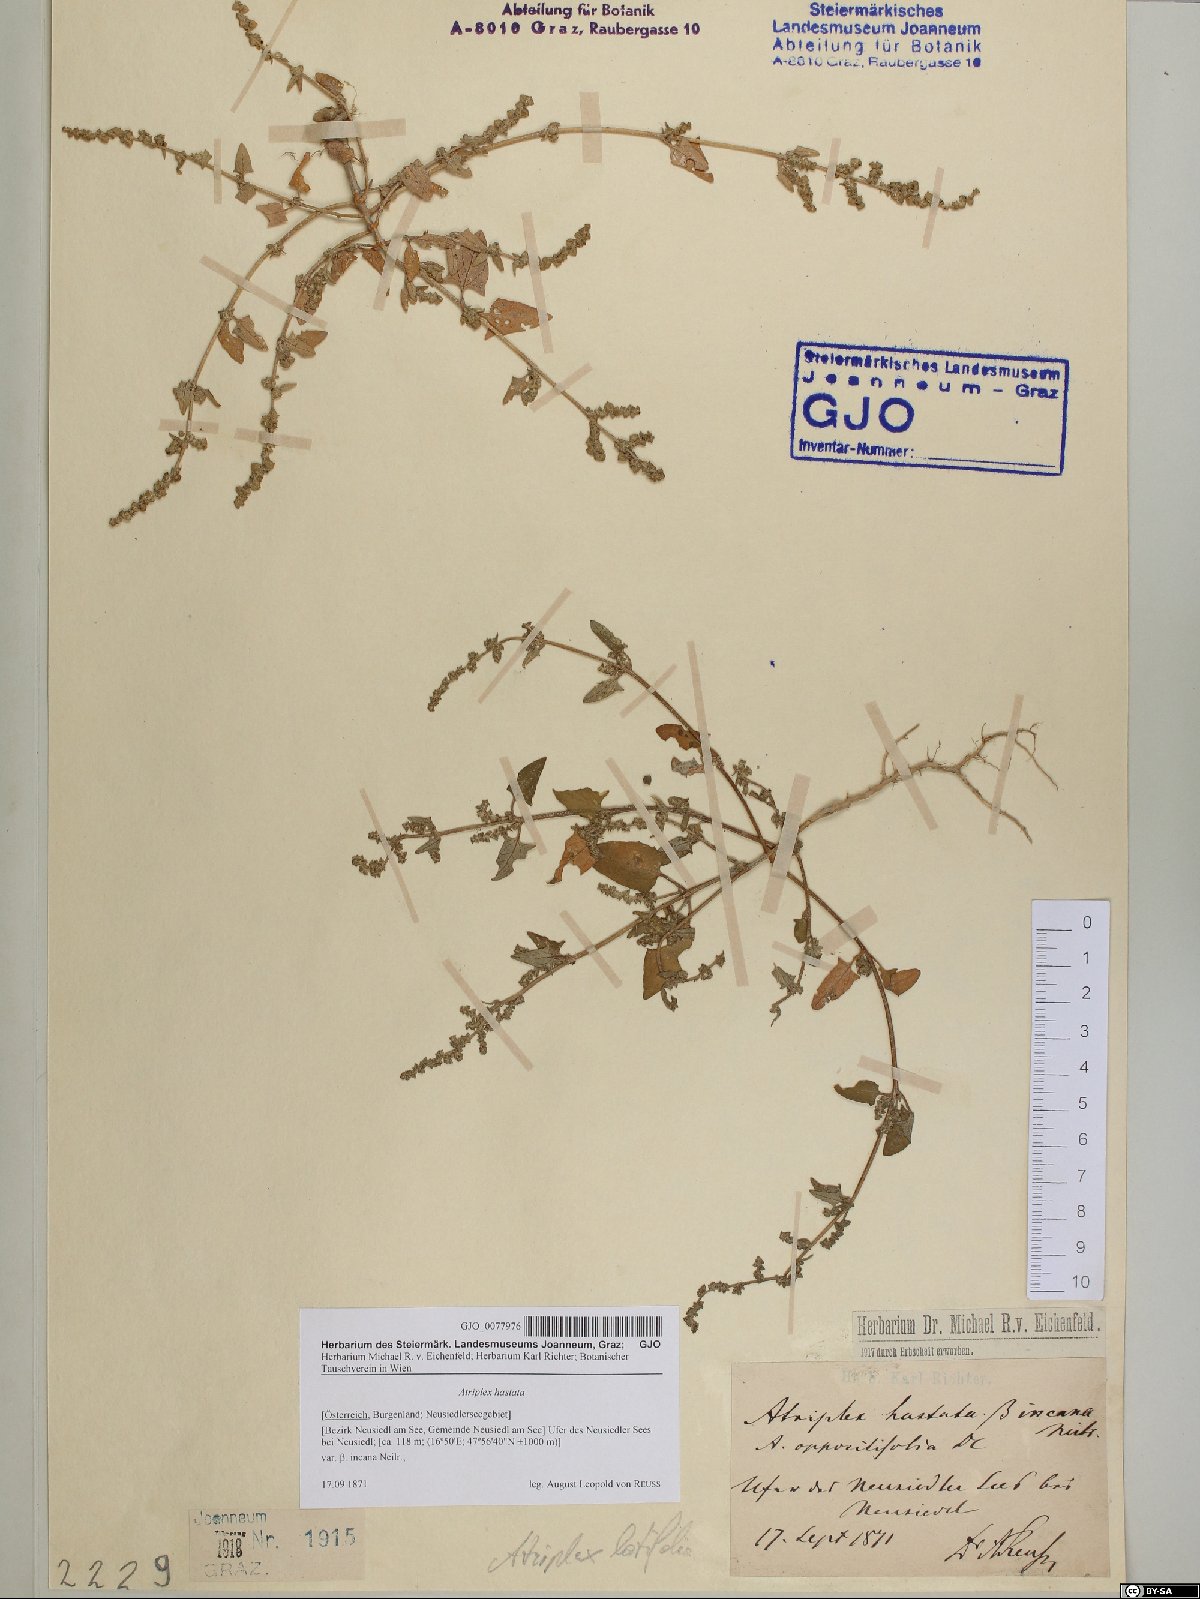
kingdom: Plantae
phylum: Tracheophyta
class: Magnoliopsida
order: Caryophyllales
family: Amaranthaceae
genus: Atriplex
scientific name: Atriplex calotheca
